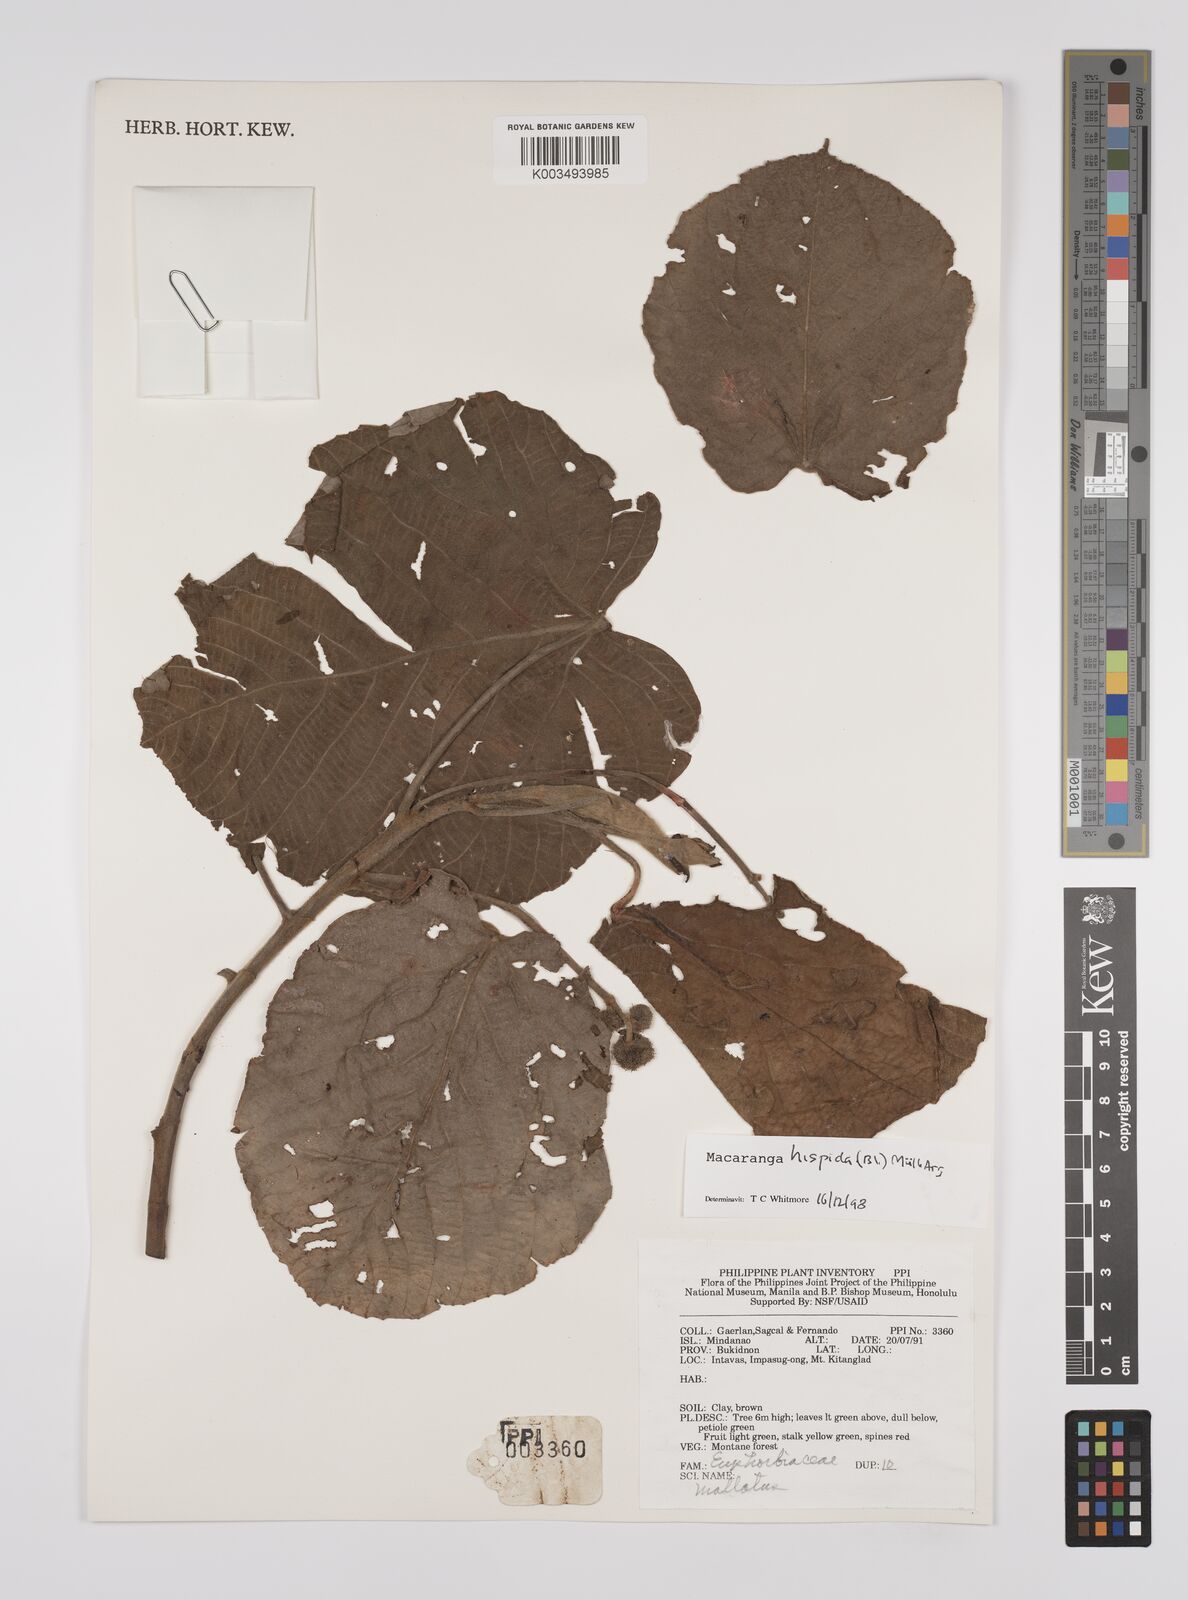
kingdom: Plantae
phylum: Tracheophyta
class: Magnoliopsida
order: Malpighiales
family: Euphorbiaceae
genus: Macaranga
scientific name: Macaranga hispida
